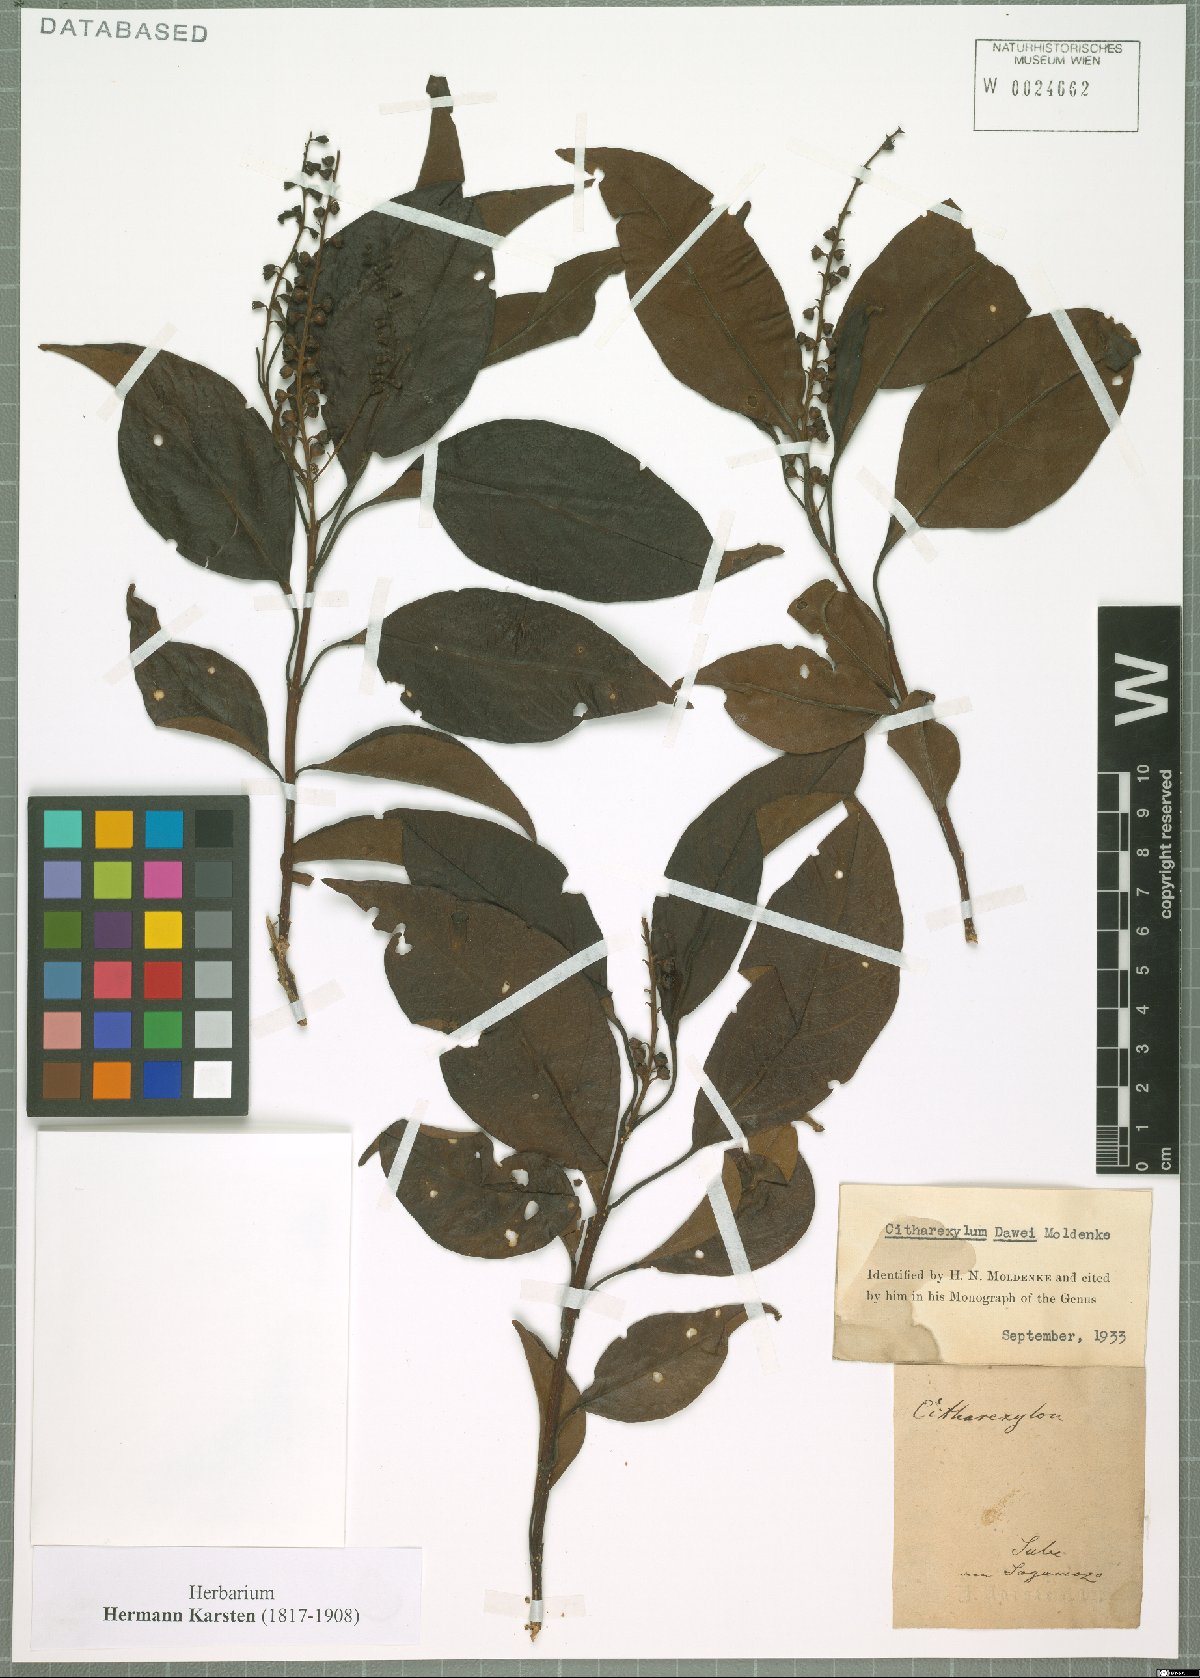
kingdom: Plantae
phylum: Tracheophyta
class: Magnoliopsida
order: Lamiales
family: Verbenaceae
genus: Citharexylum
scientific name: Citharexylum karstenii
